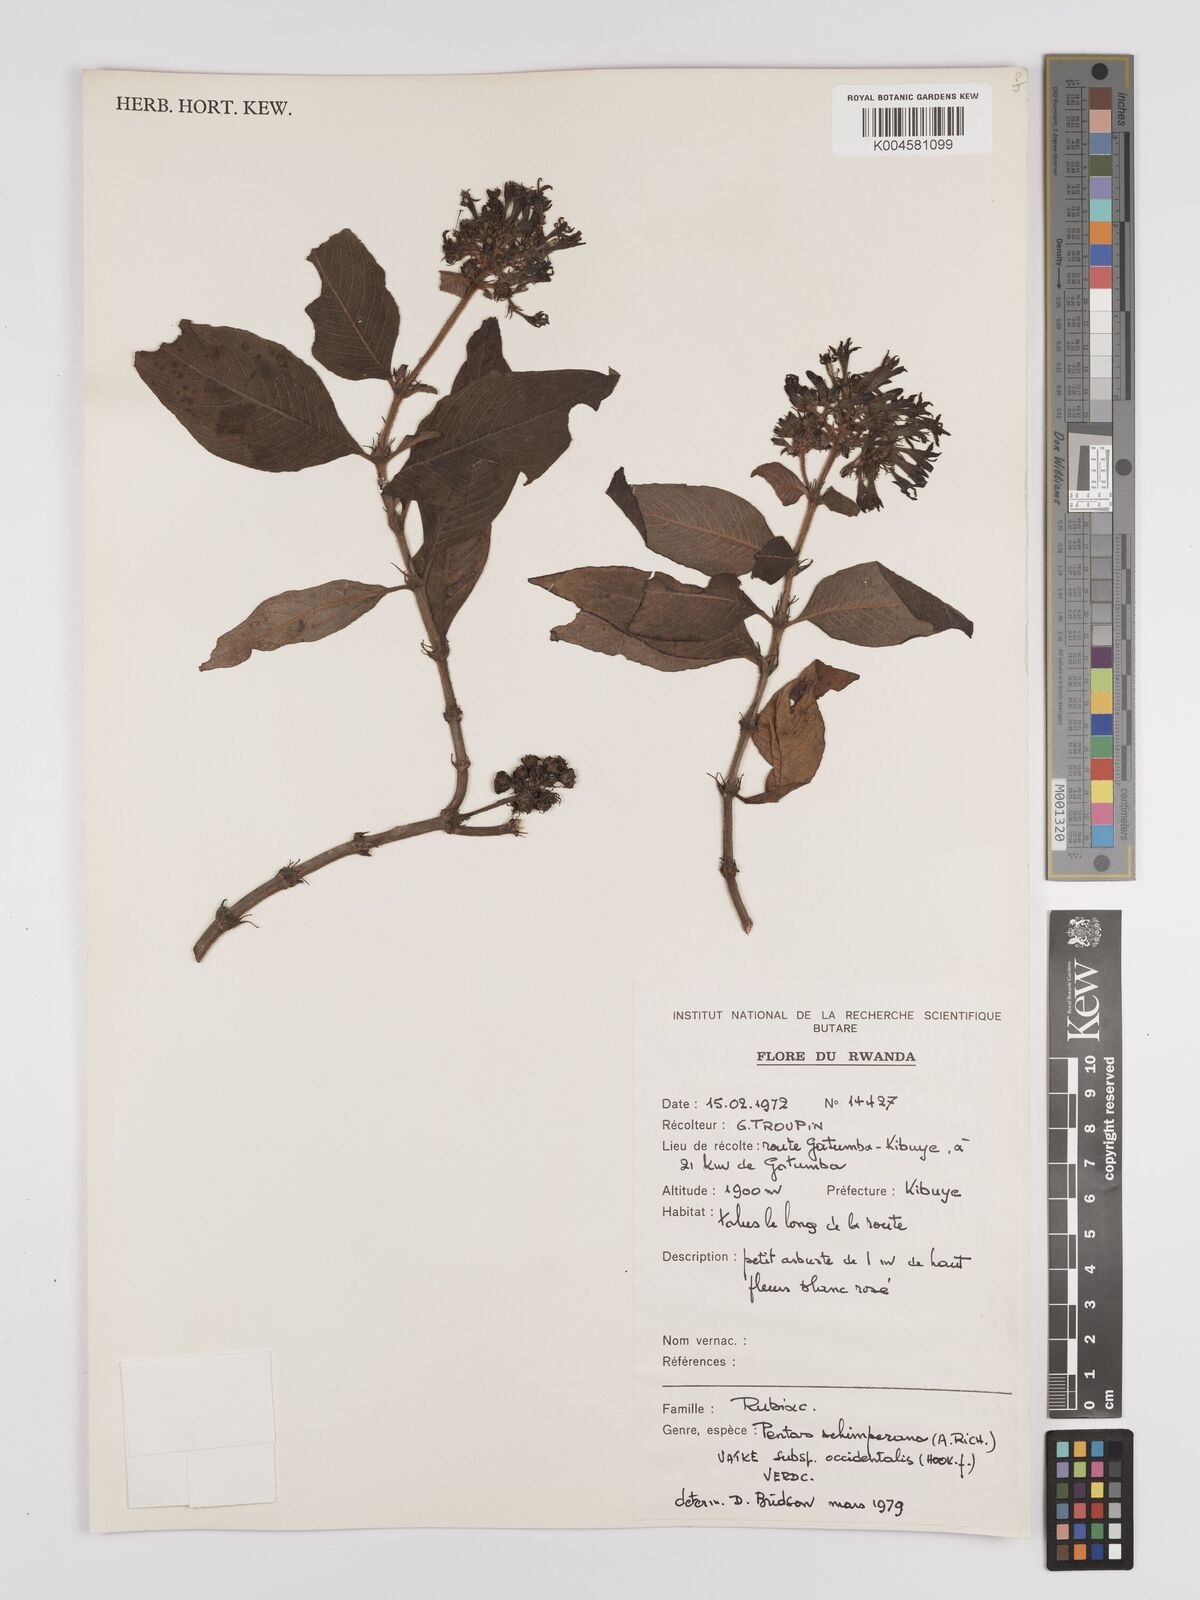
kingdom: Plantae
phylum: Tracheophyta
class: Magnoliopsida
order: Gentianales
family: Rubiaceae
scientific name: Rubiaceae
